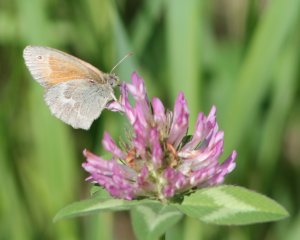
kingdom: Animalia
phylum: Arthropoda
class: Insecta
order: Lepidoptera
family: Nymphalidae
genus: Coenonympha
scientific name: Coenonympha tullia
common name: Large Heath
